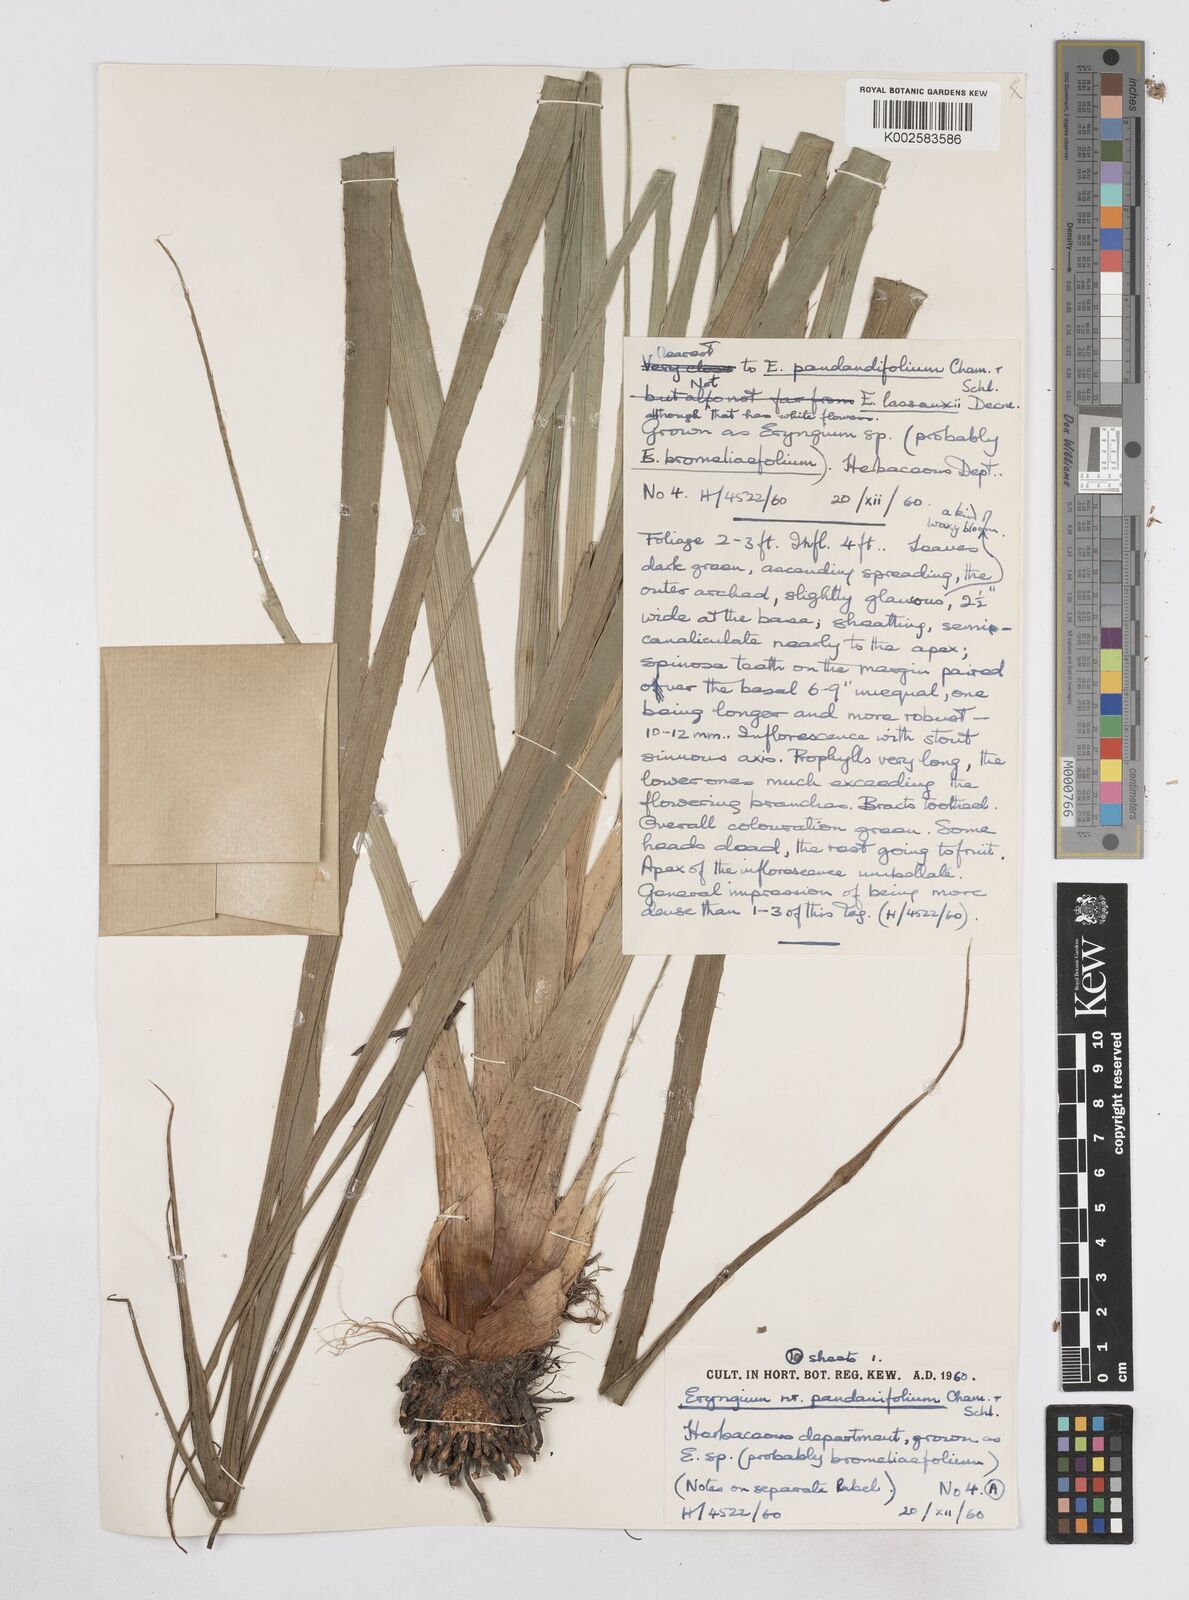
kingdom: Plantae
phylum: Tracheophyta
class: Magnoliopsida
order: Apiales
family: Apiaceae
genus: Eryngium
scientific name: Eryngium pandanifolium
